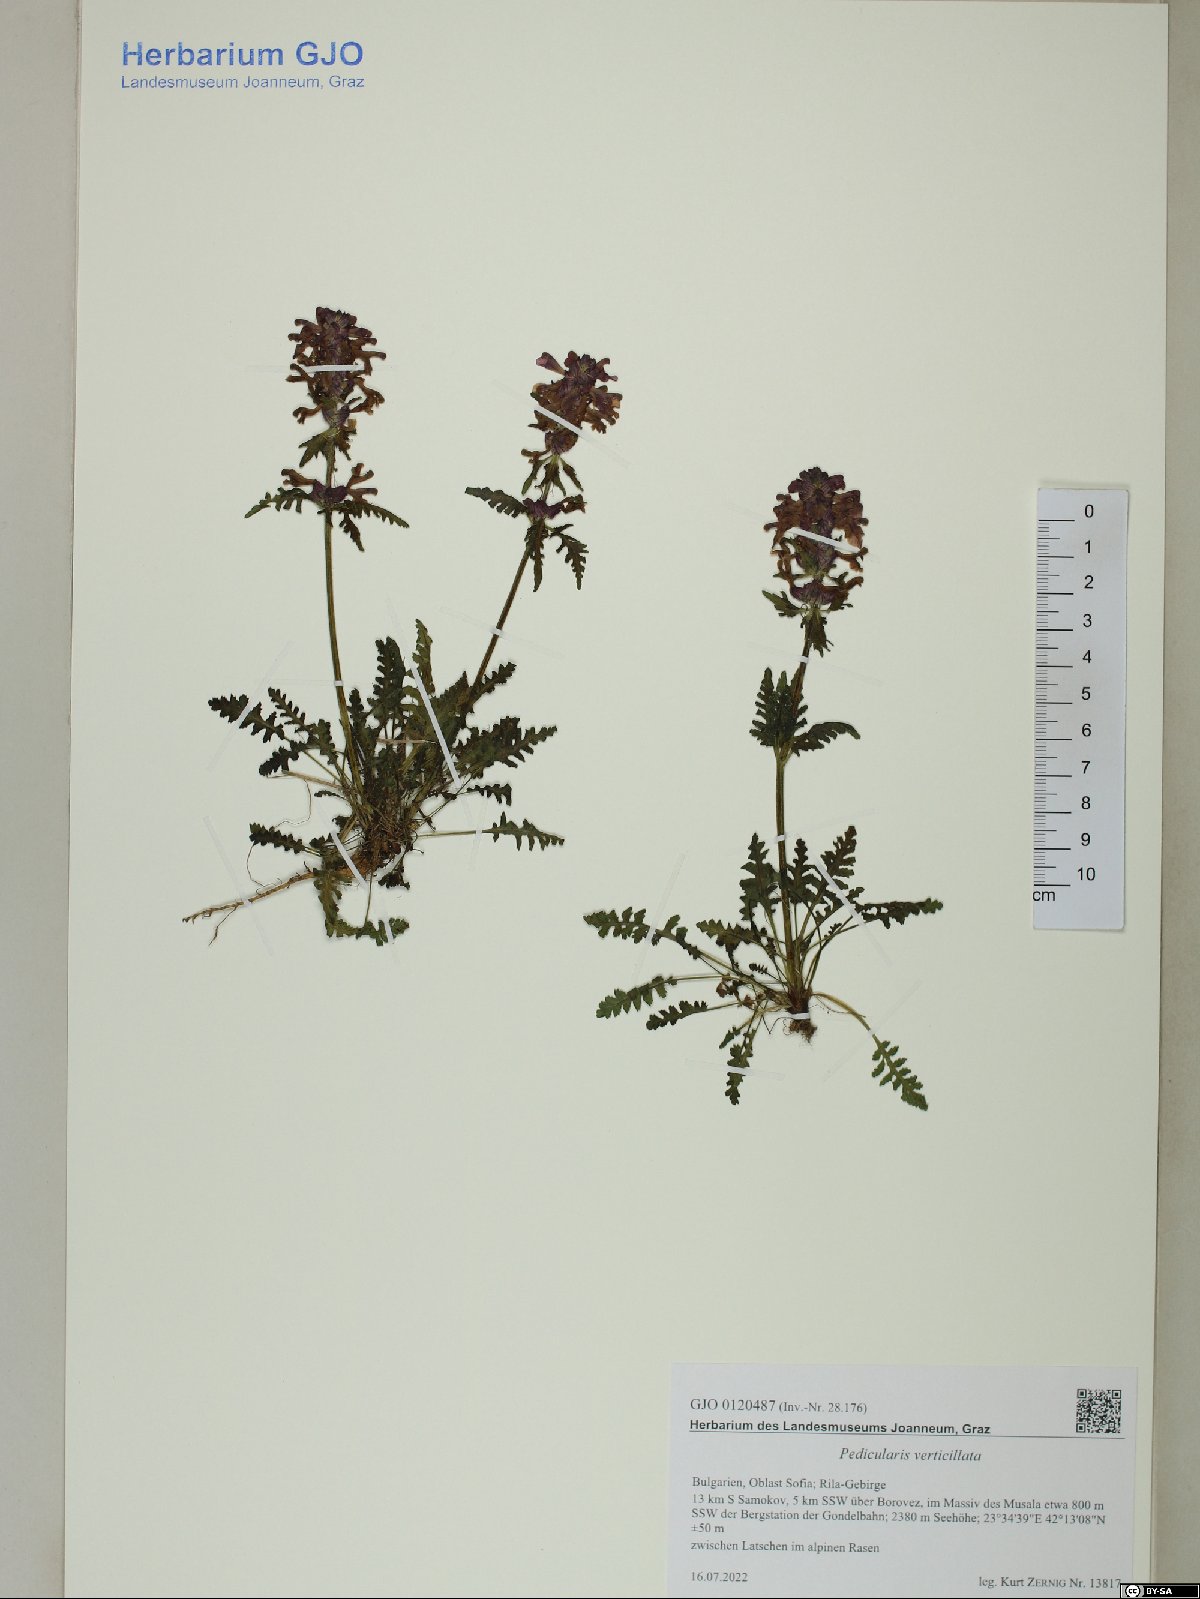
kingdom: Plantae
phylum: Tracheophyta
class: Magnoliopsida
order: Lamiales
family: Orobanchaceae
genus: Pedicularis
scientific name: Pedicularis verticillata
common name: Whorled lousewort
